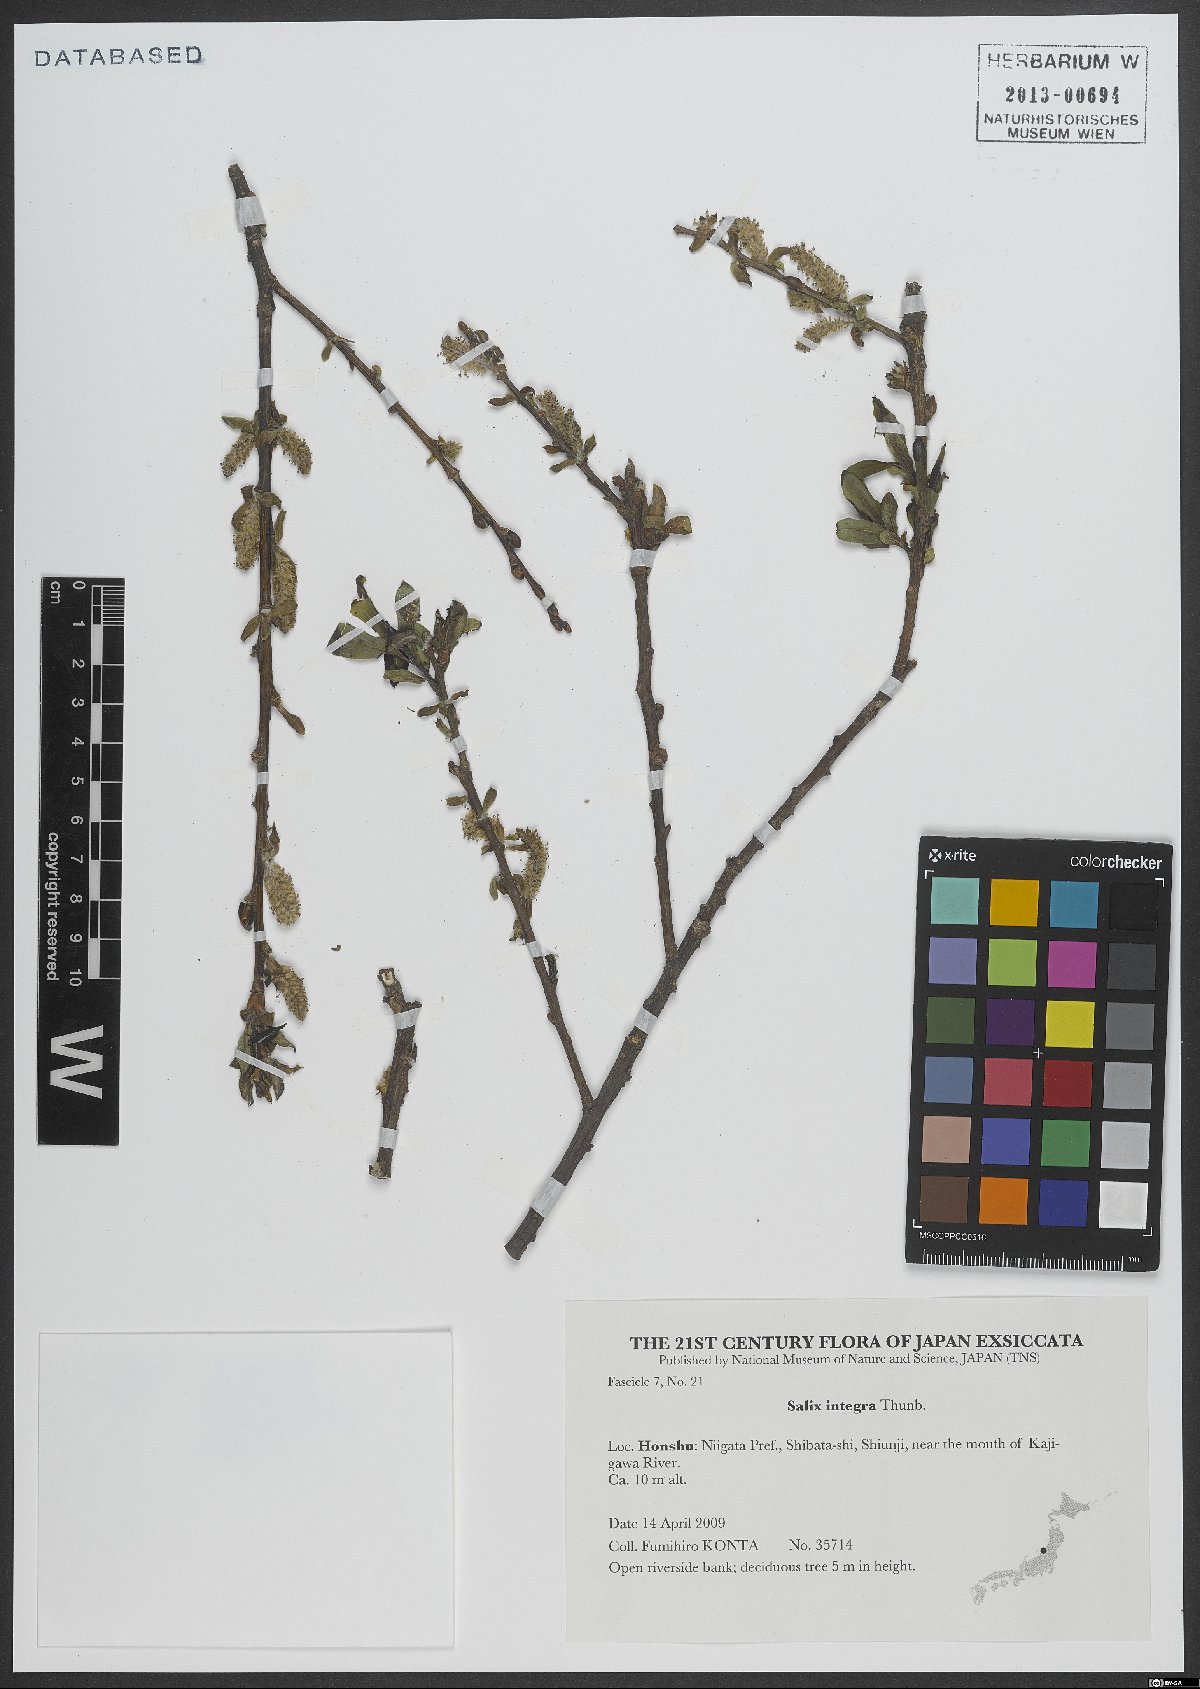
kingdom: Plantae
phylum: Tracheophyta
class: Magnoliopsida
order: Malpighiales
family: Salicaceae
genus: Salix
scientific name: Salix integra
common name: Dappled willow
